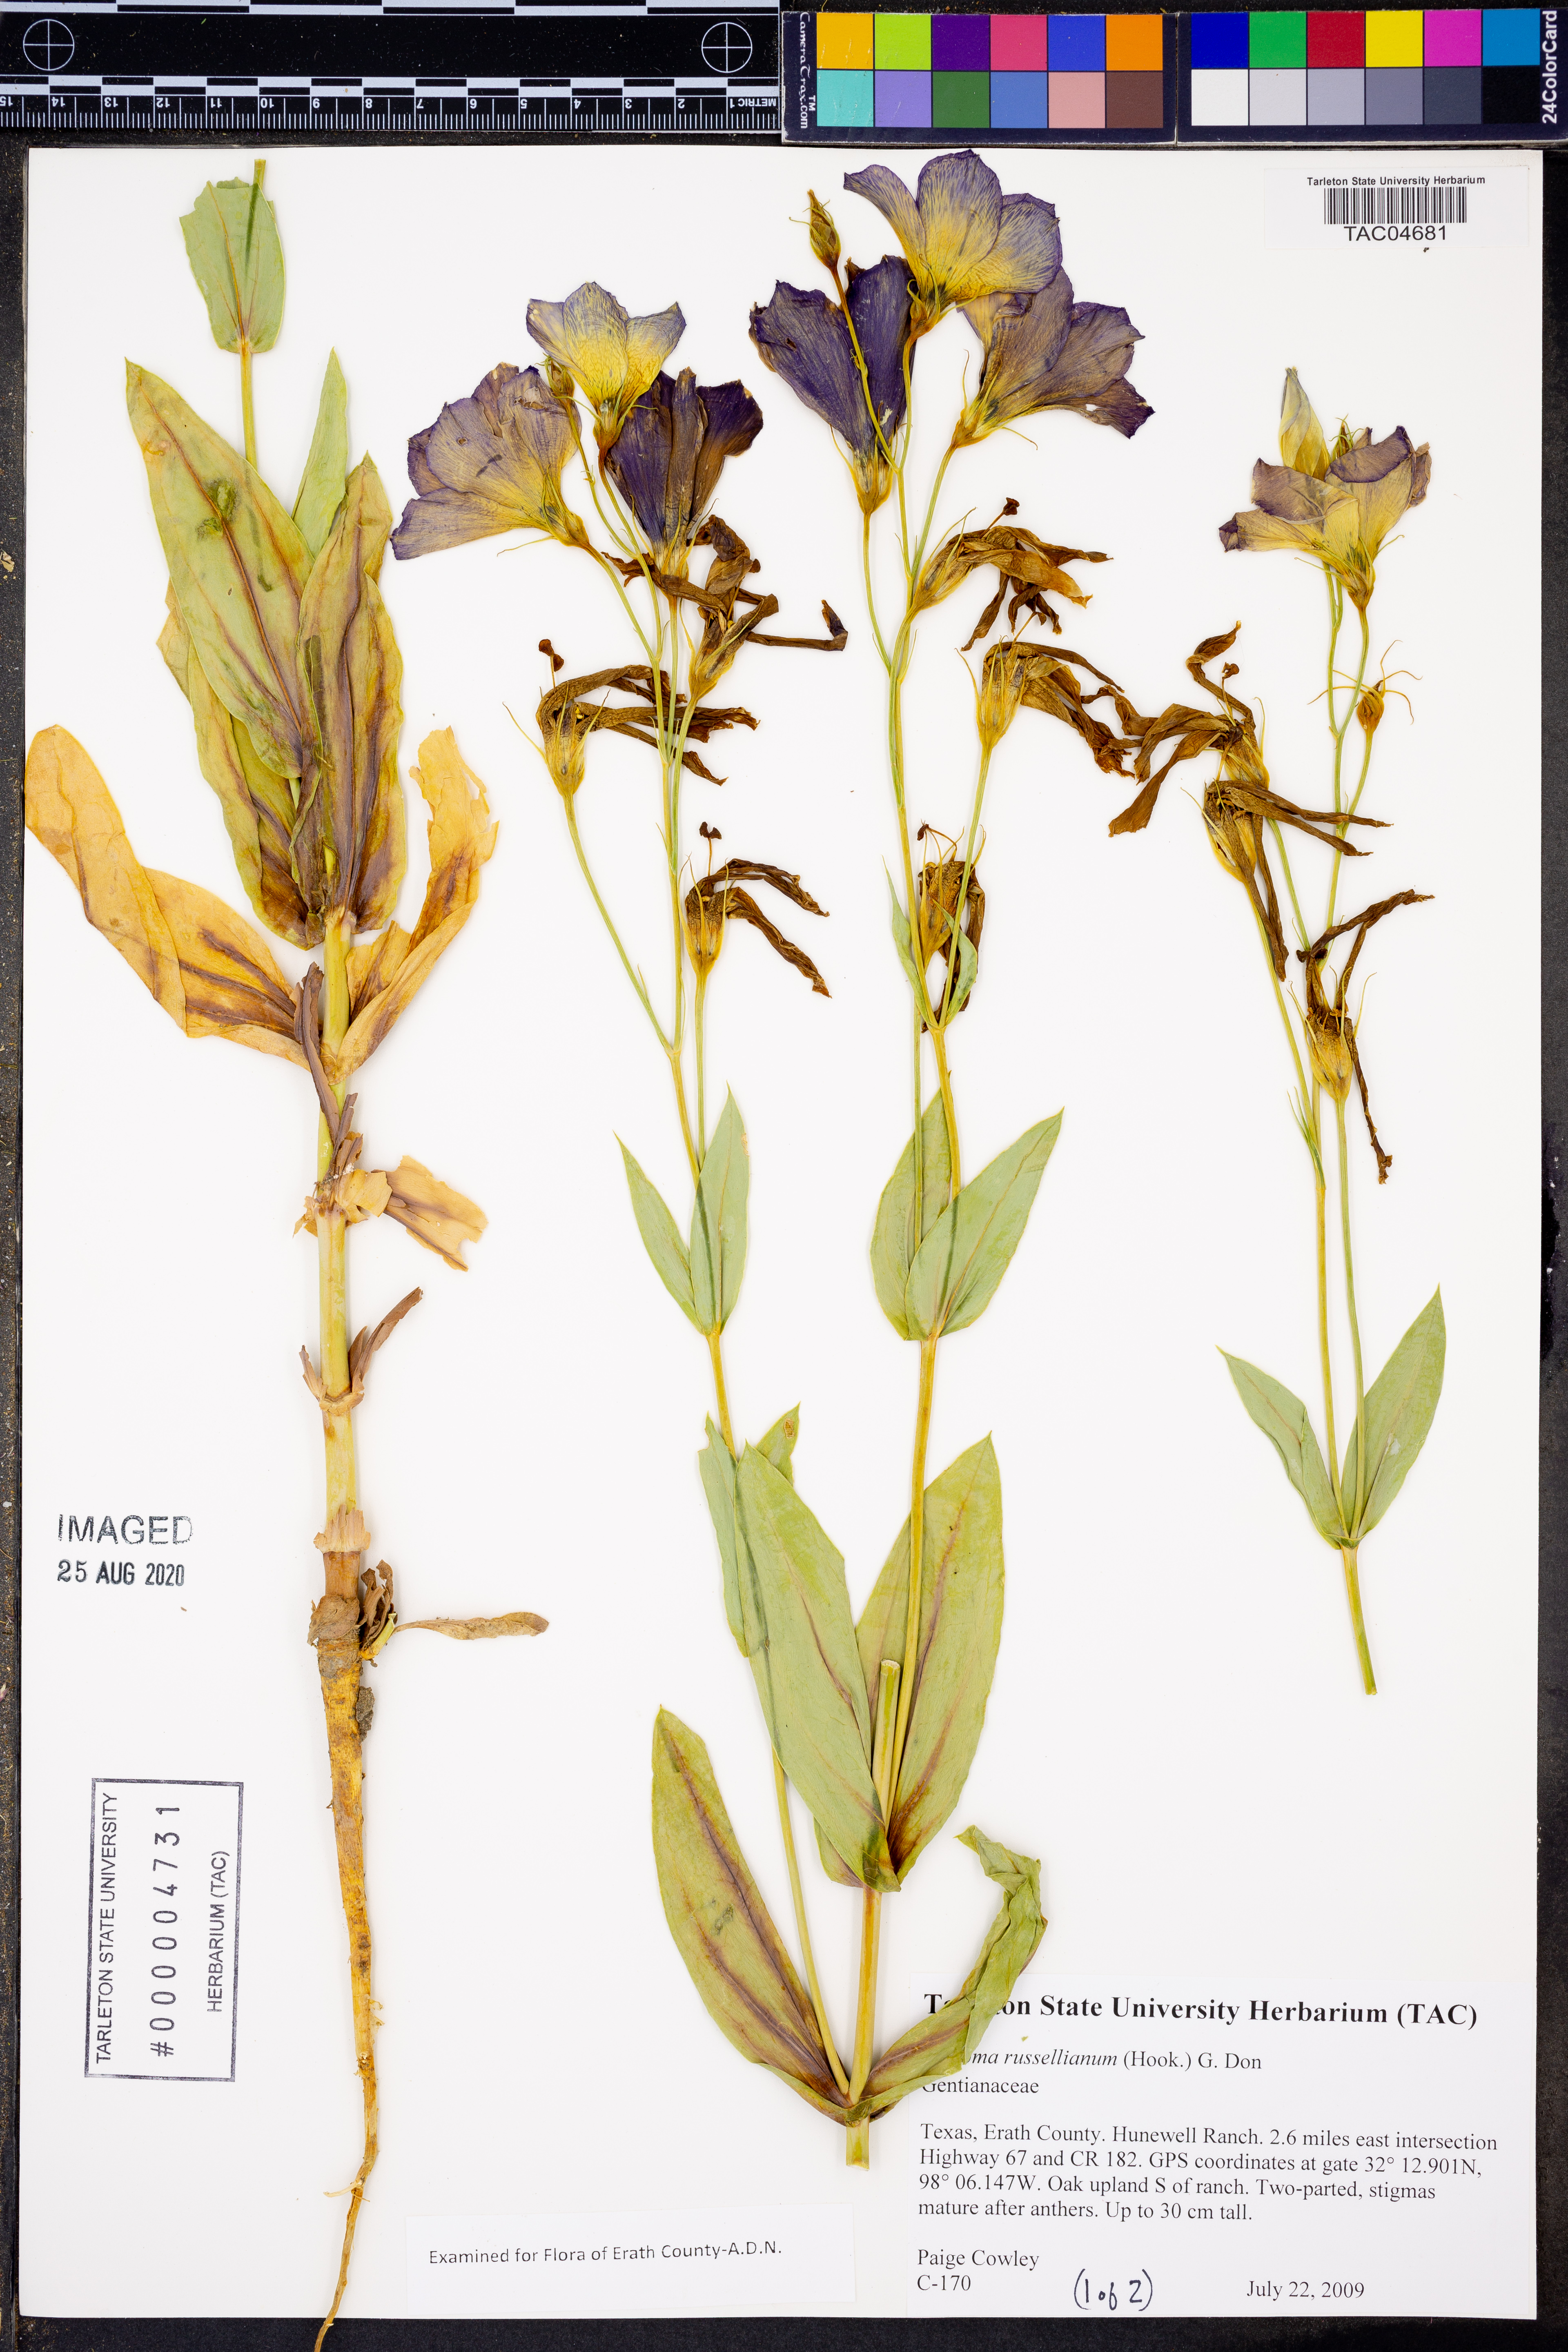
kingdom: Plantae
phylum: Tracheophyta
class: Magnoliopsida
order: Gentianales
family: Gentianaceae
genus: Eustoma
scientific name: Eustoma russellianum
